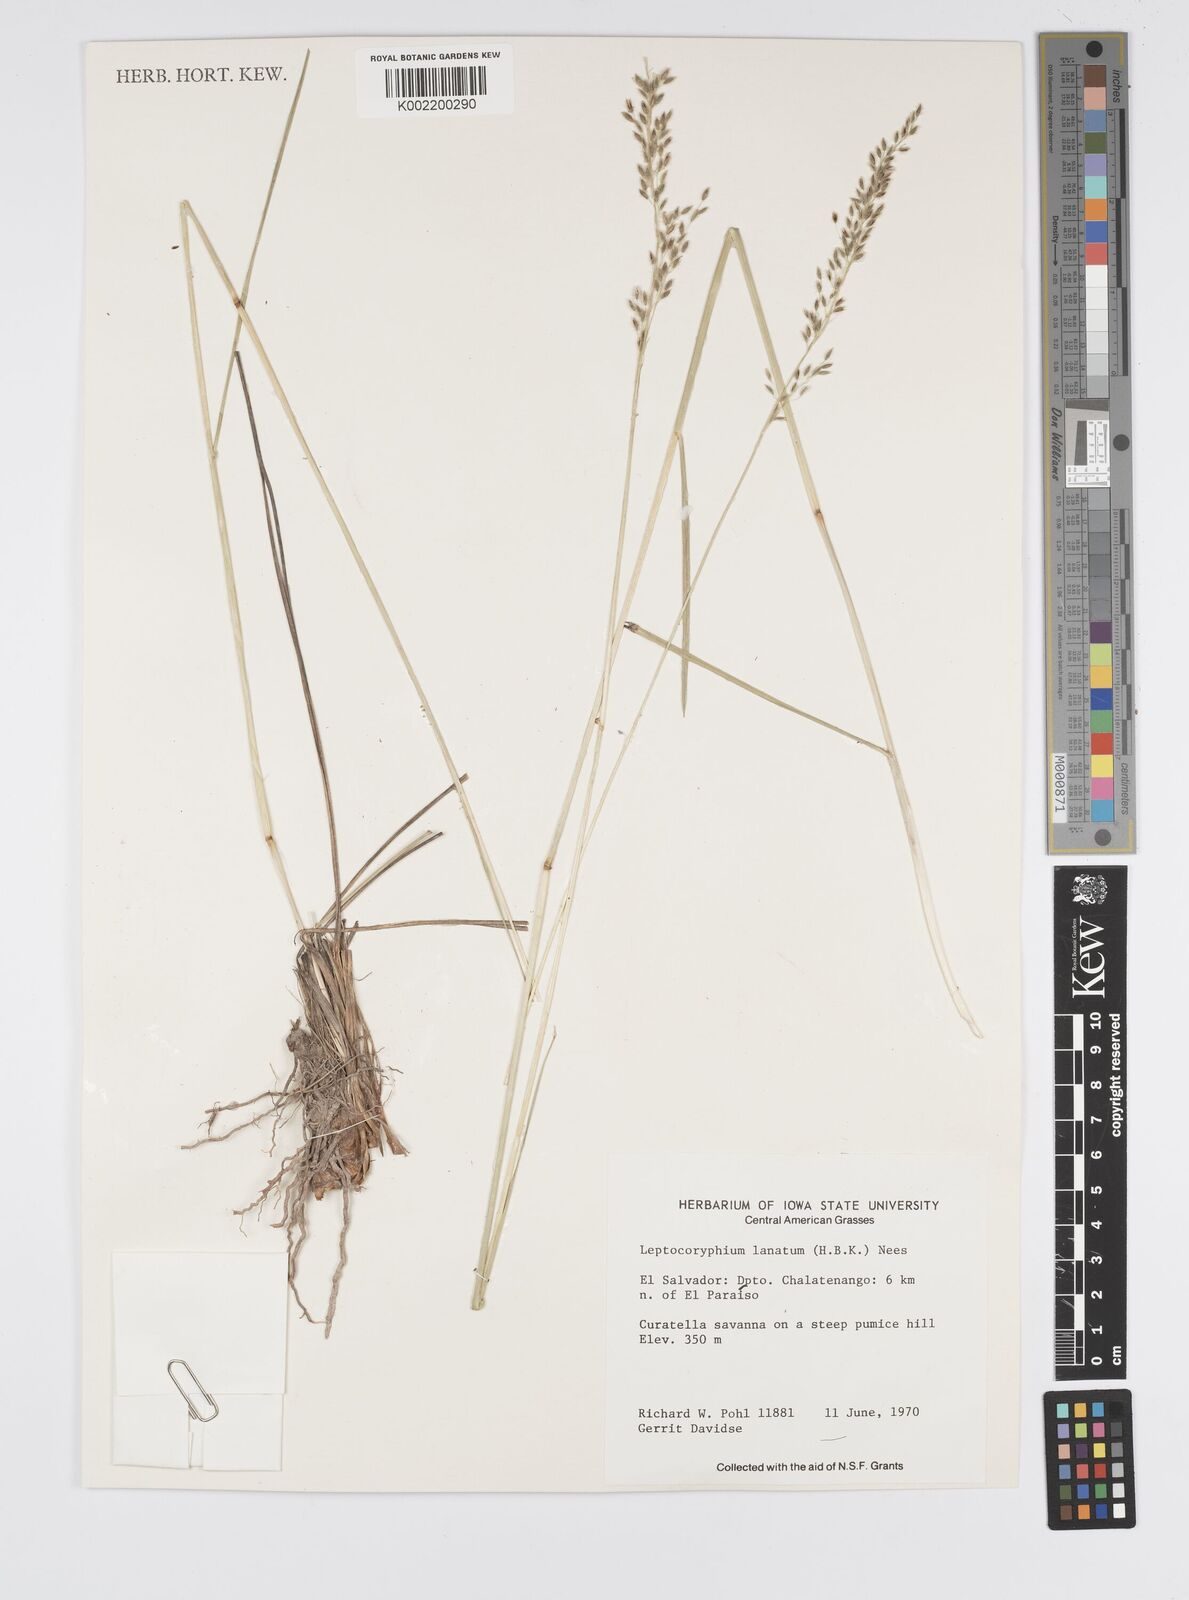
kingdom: Plantae
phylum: Tracheophyta
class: Liliopsida
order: Poales
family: Poaceae
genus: Anthenantia
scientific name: Anthenantia lanata
